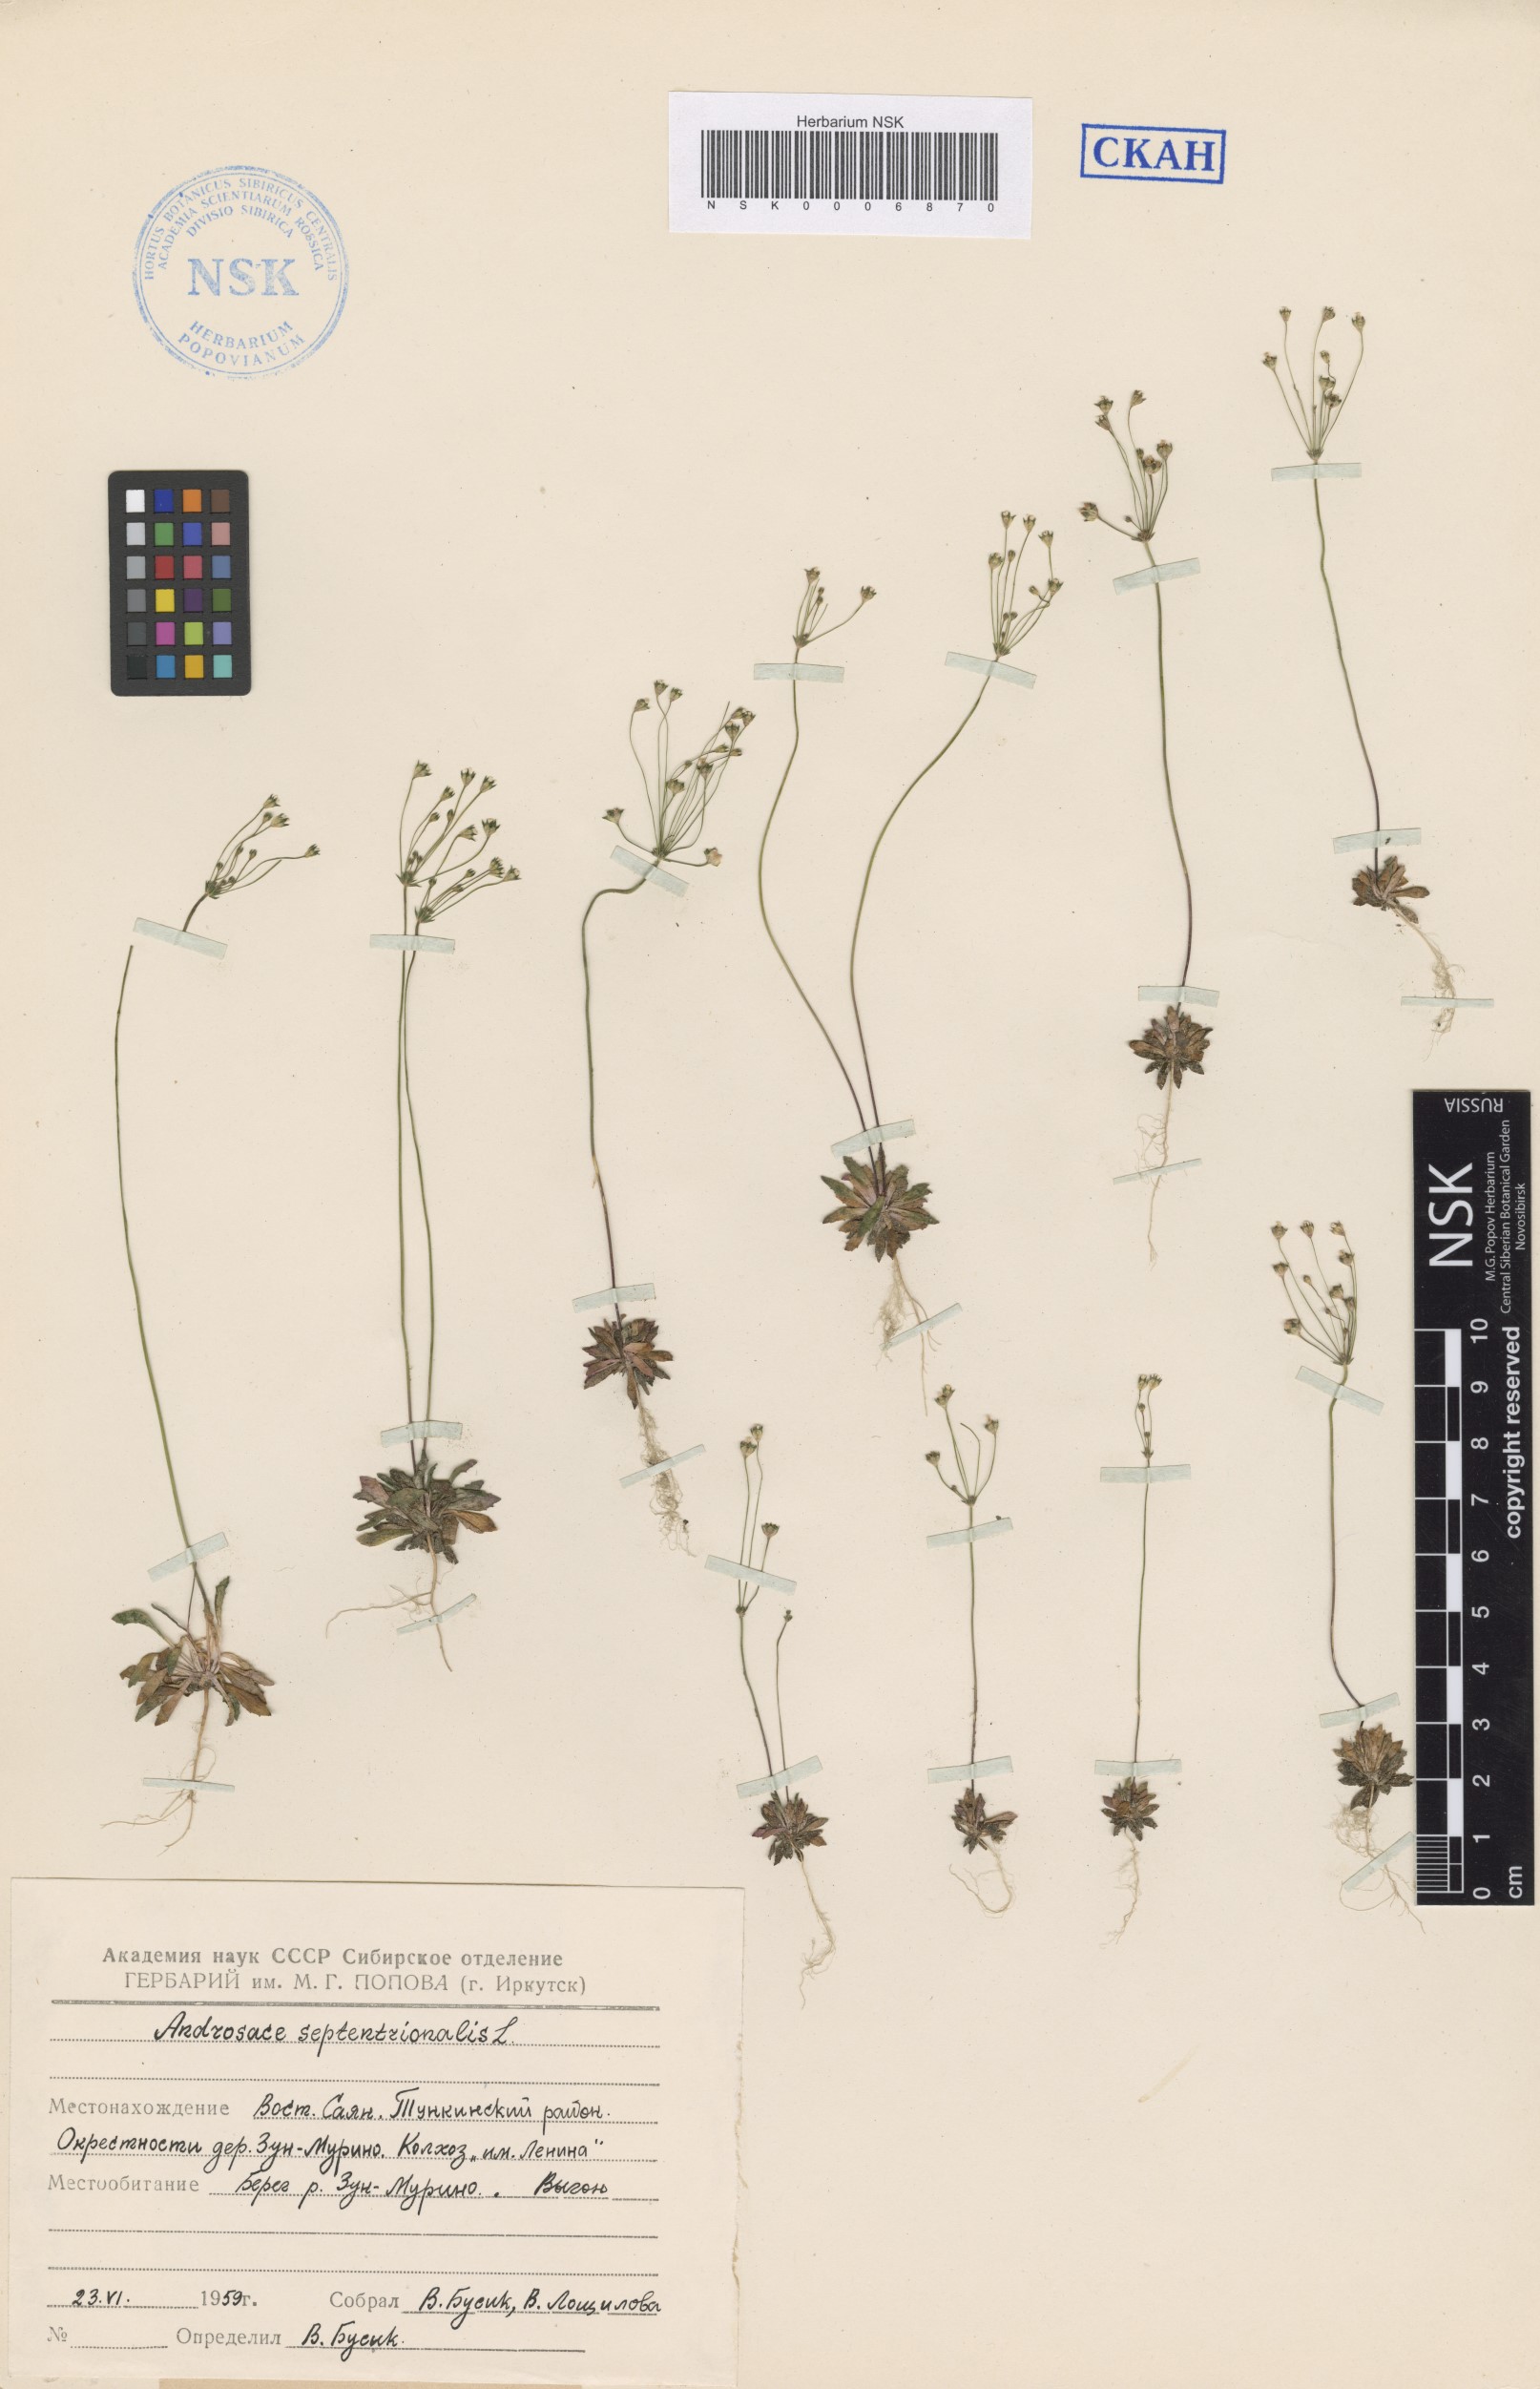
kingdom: Plantae
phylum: Tracheophyta
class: Magnoliopsida
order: Ericales
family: Primulaceae
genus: Androsace
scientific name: Androsace septentrionalis
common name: Hairy northern fairy-candelabra
